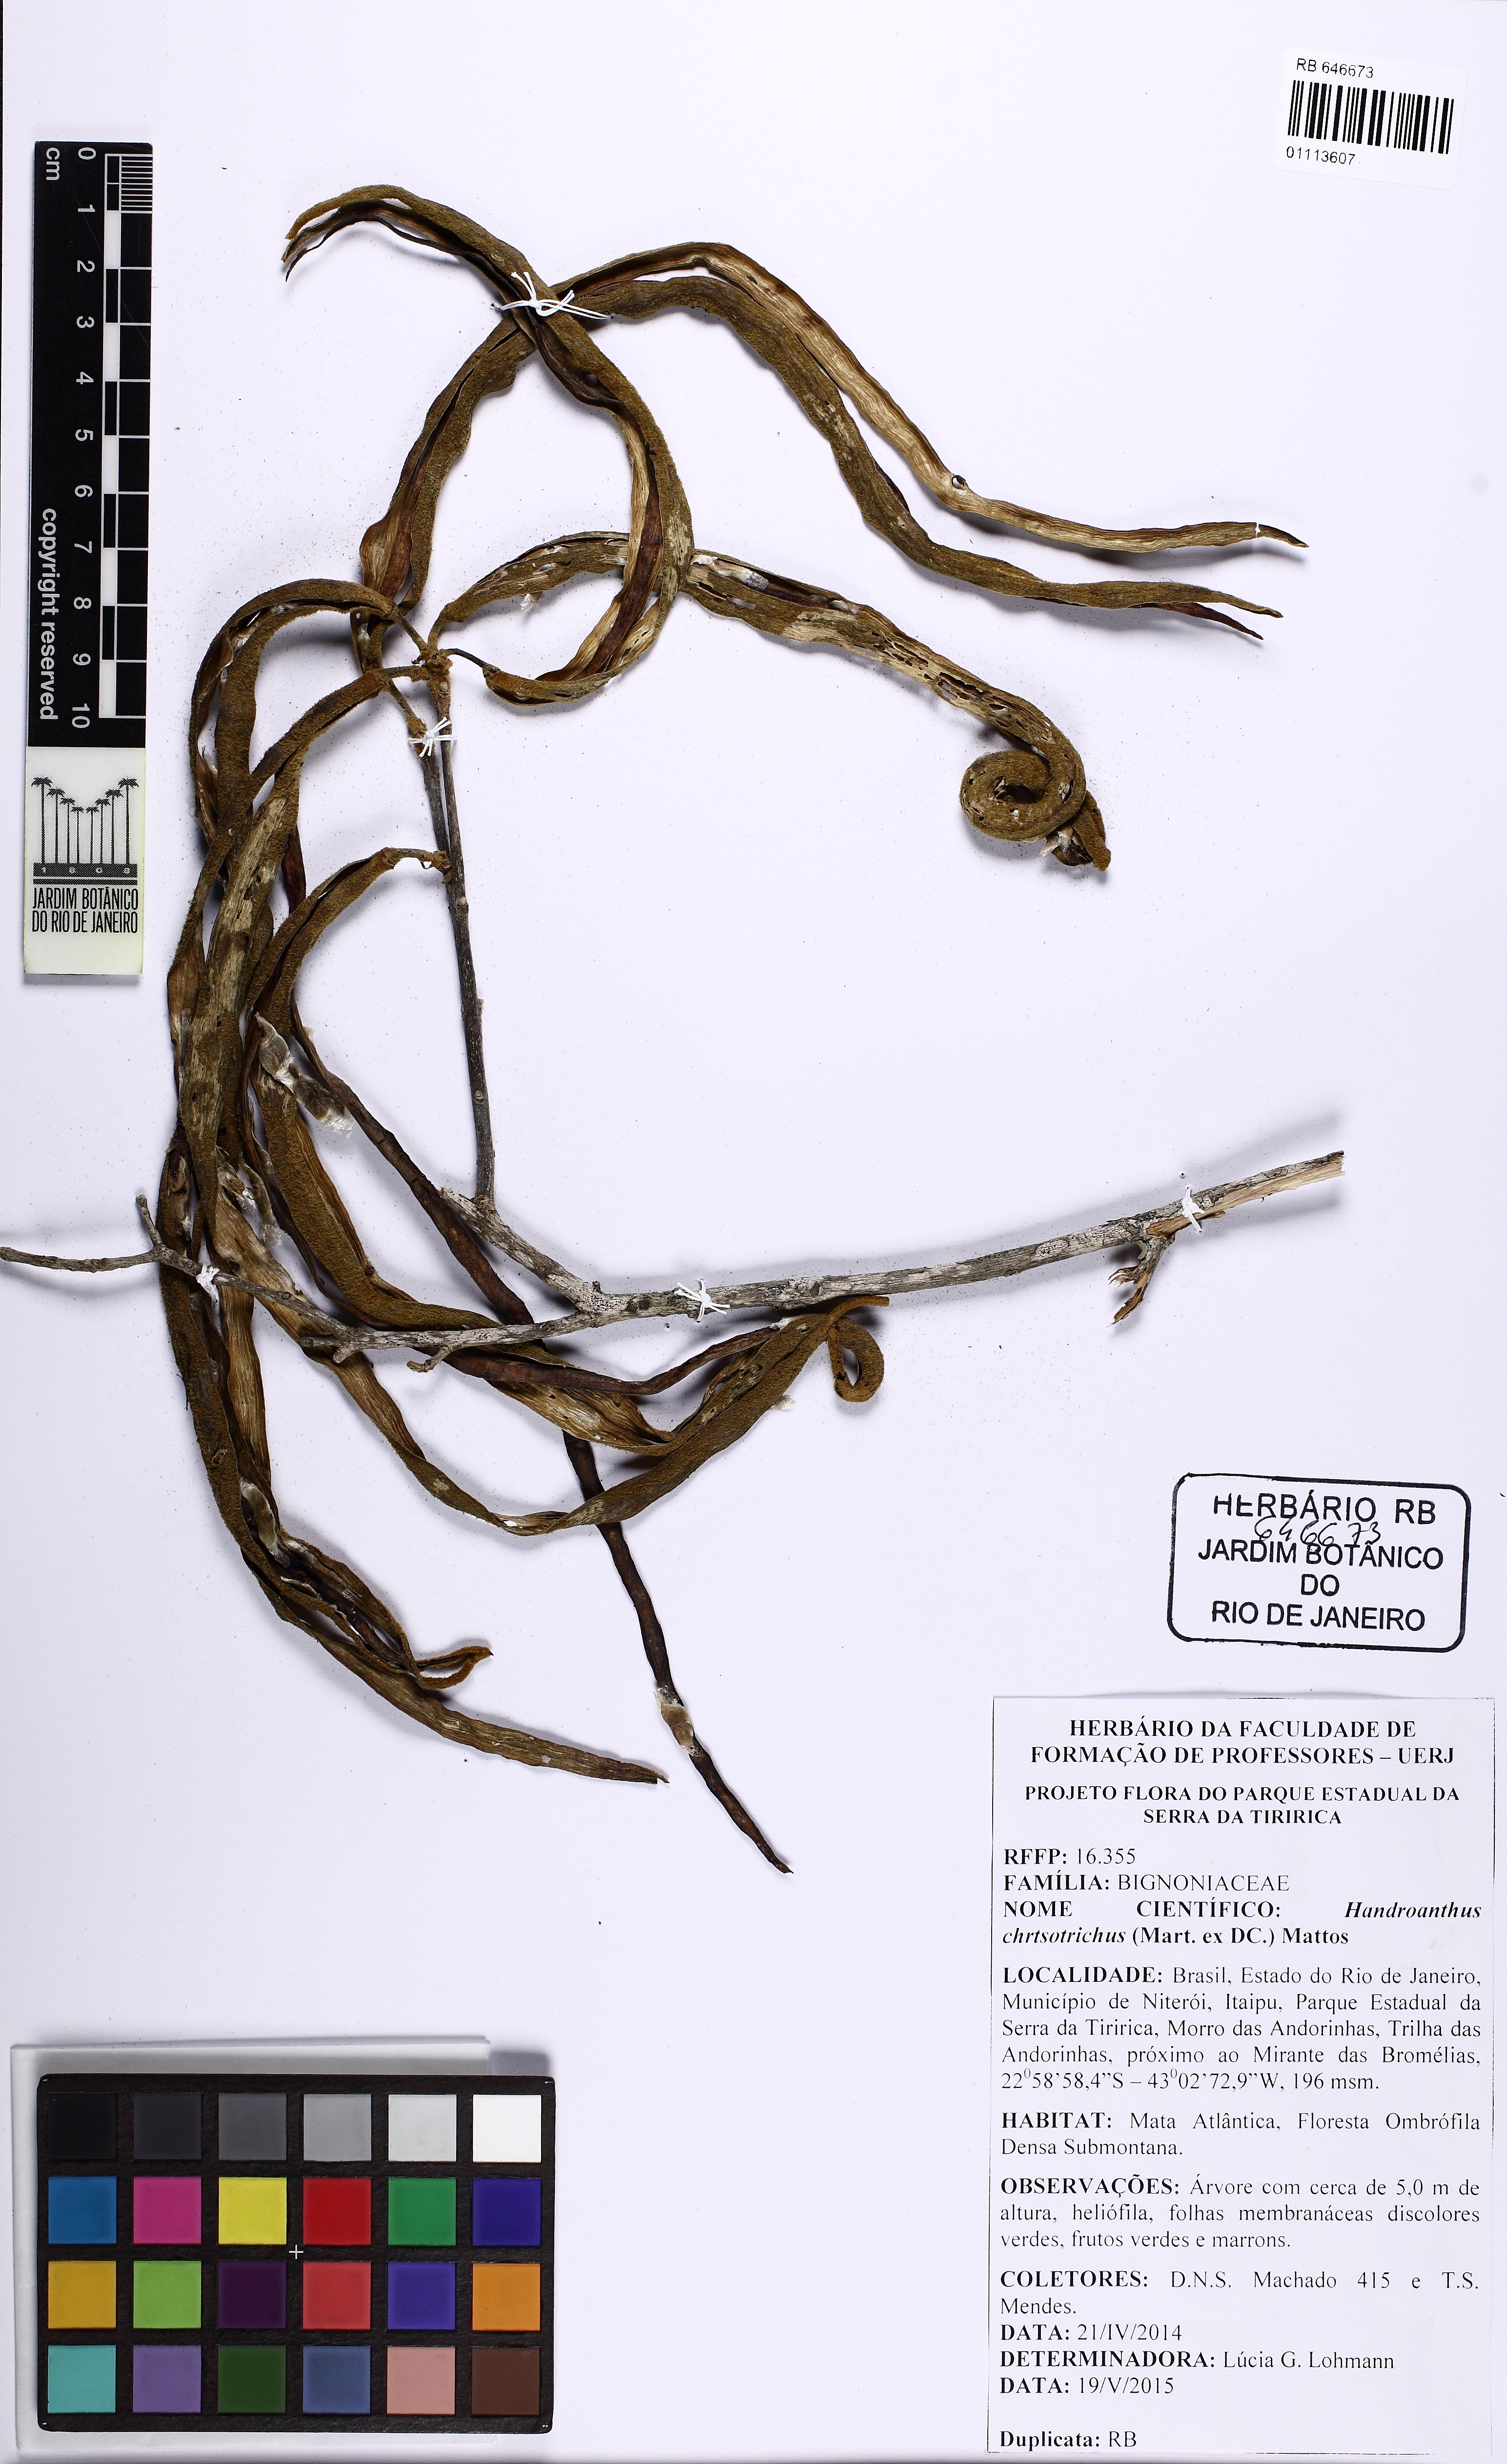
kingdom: Plantae
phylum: Tracheophyta
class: Magnoliopsida
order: Lamiales
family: Bignoniaceae
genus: Handroanthus
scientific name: Handroanthus chrysotrichus
